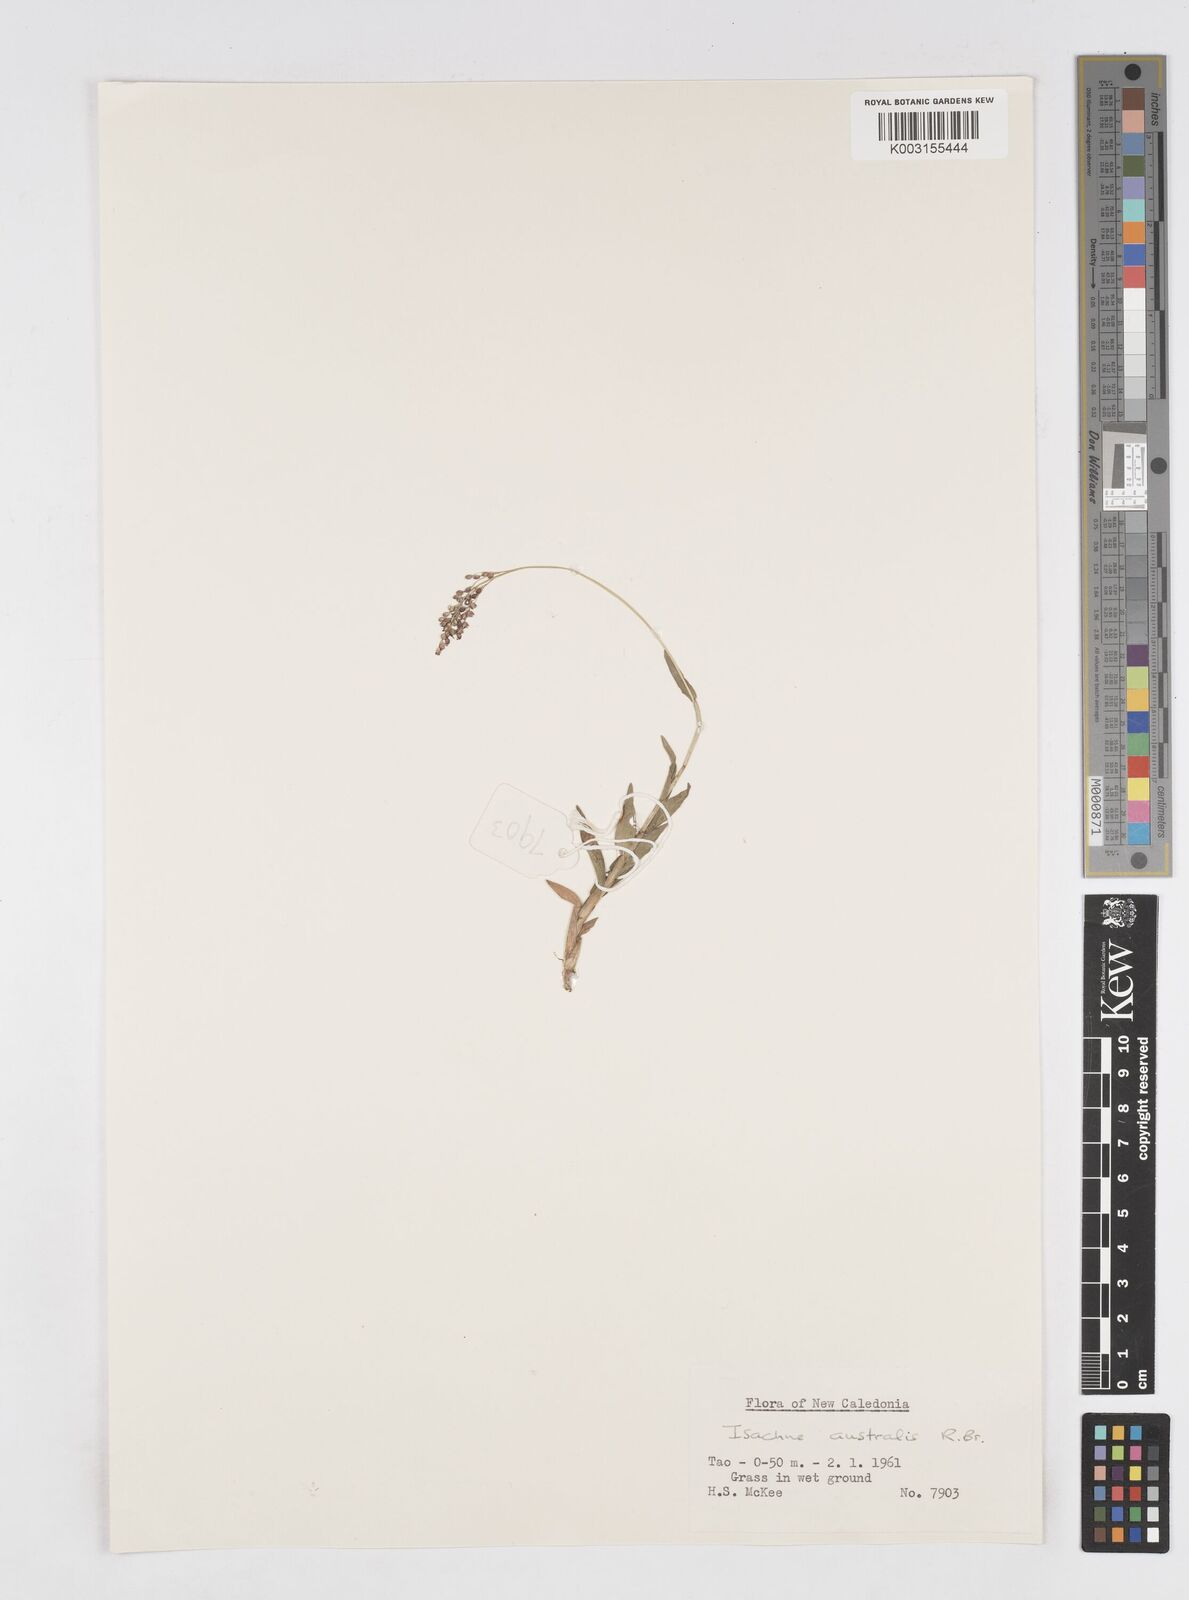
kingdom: Plantae
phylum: Tracheophyta
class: Liliopsida
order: Poales
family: Poaceae
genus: Isachne
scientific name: Isachne globosa
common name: Swamp millet
